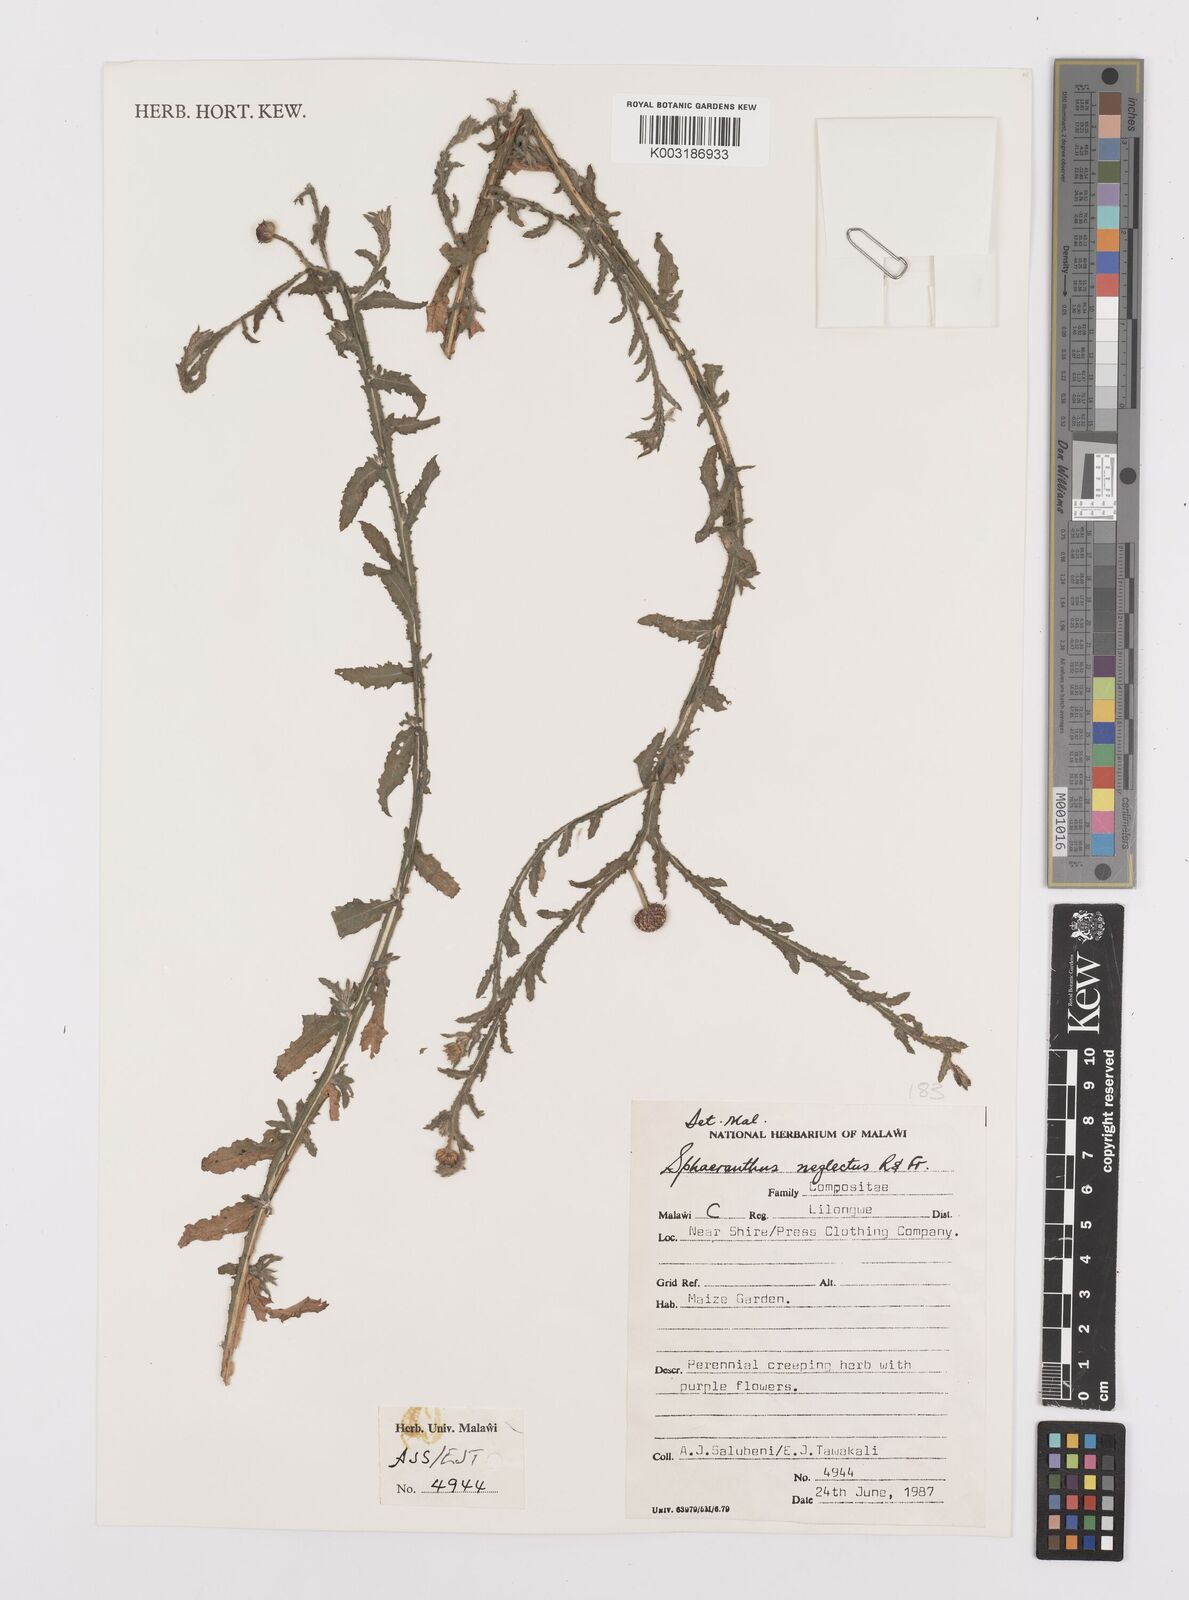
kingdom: Plantae
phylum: Tracheophyta
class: Magnoliopsida
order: Asterales
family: Asteraceae
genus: Sphaeranthus
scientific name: Sphaeranthus neglectus
